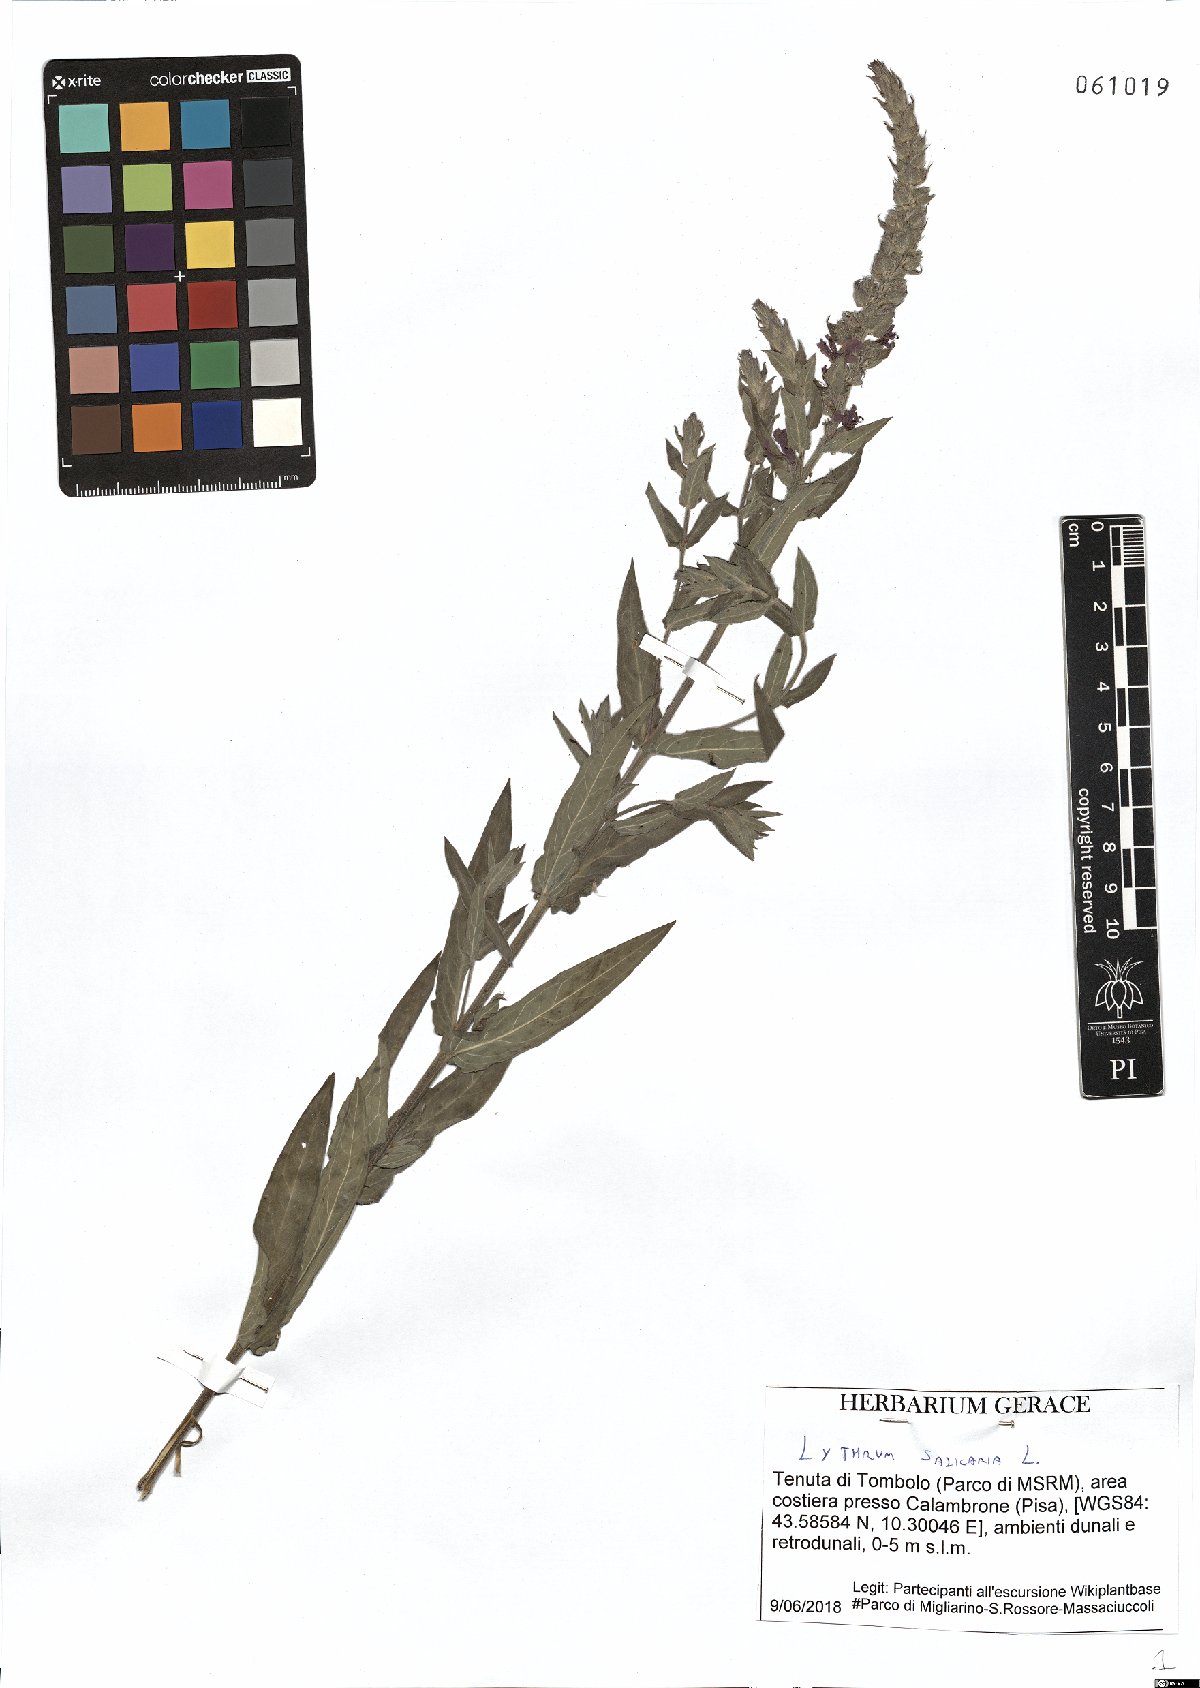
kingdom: Plantae
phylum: Tracheophyta
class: Magnoliopsida
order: Myrtales
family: Lythraceae
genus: Lythrum
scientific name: Lythrum salicaria
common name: Purple loosestrife
